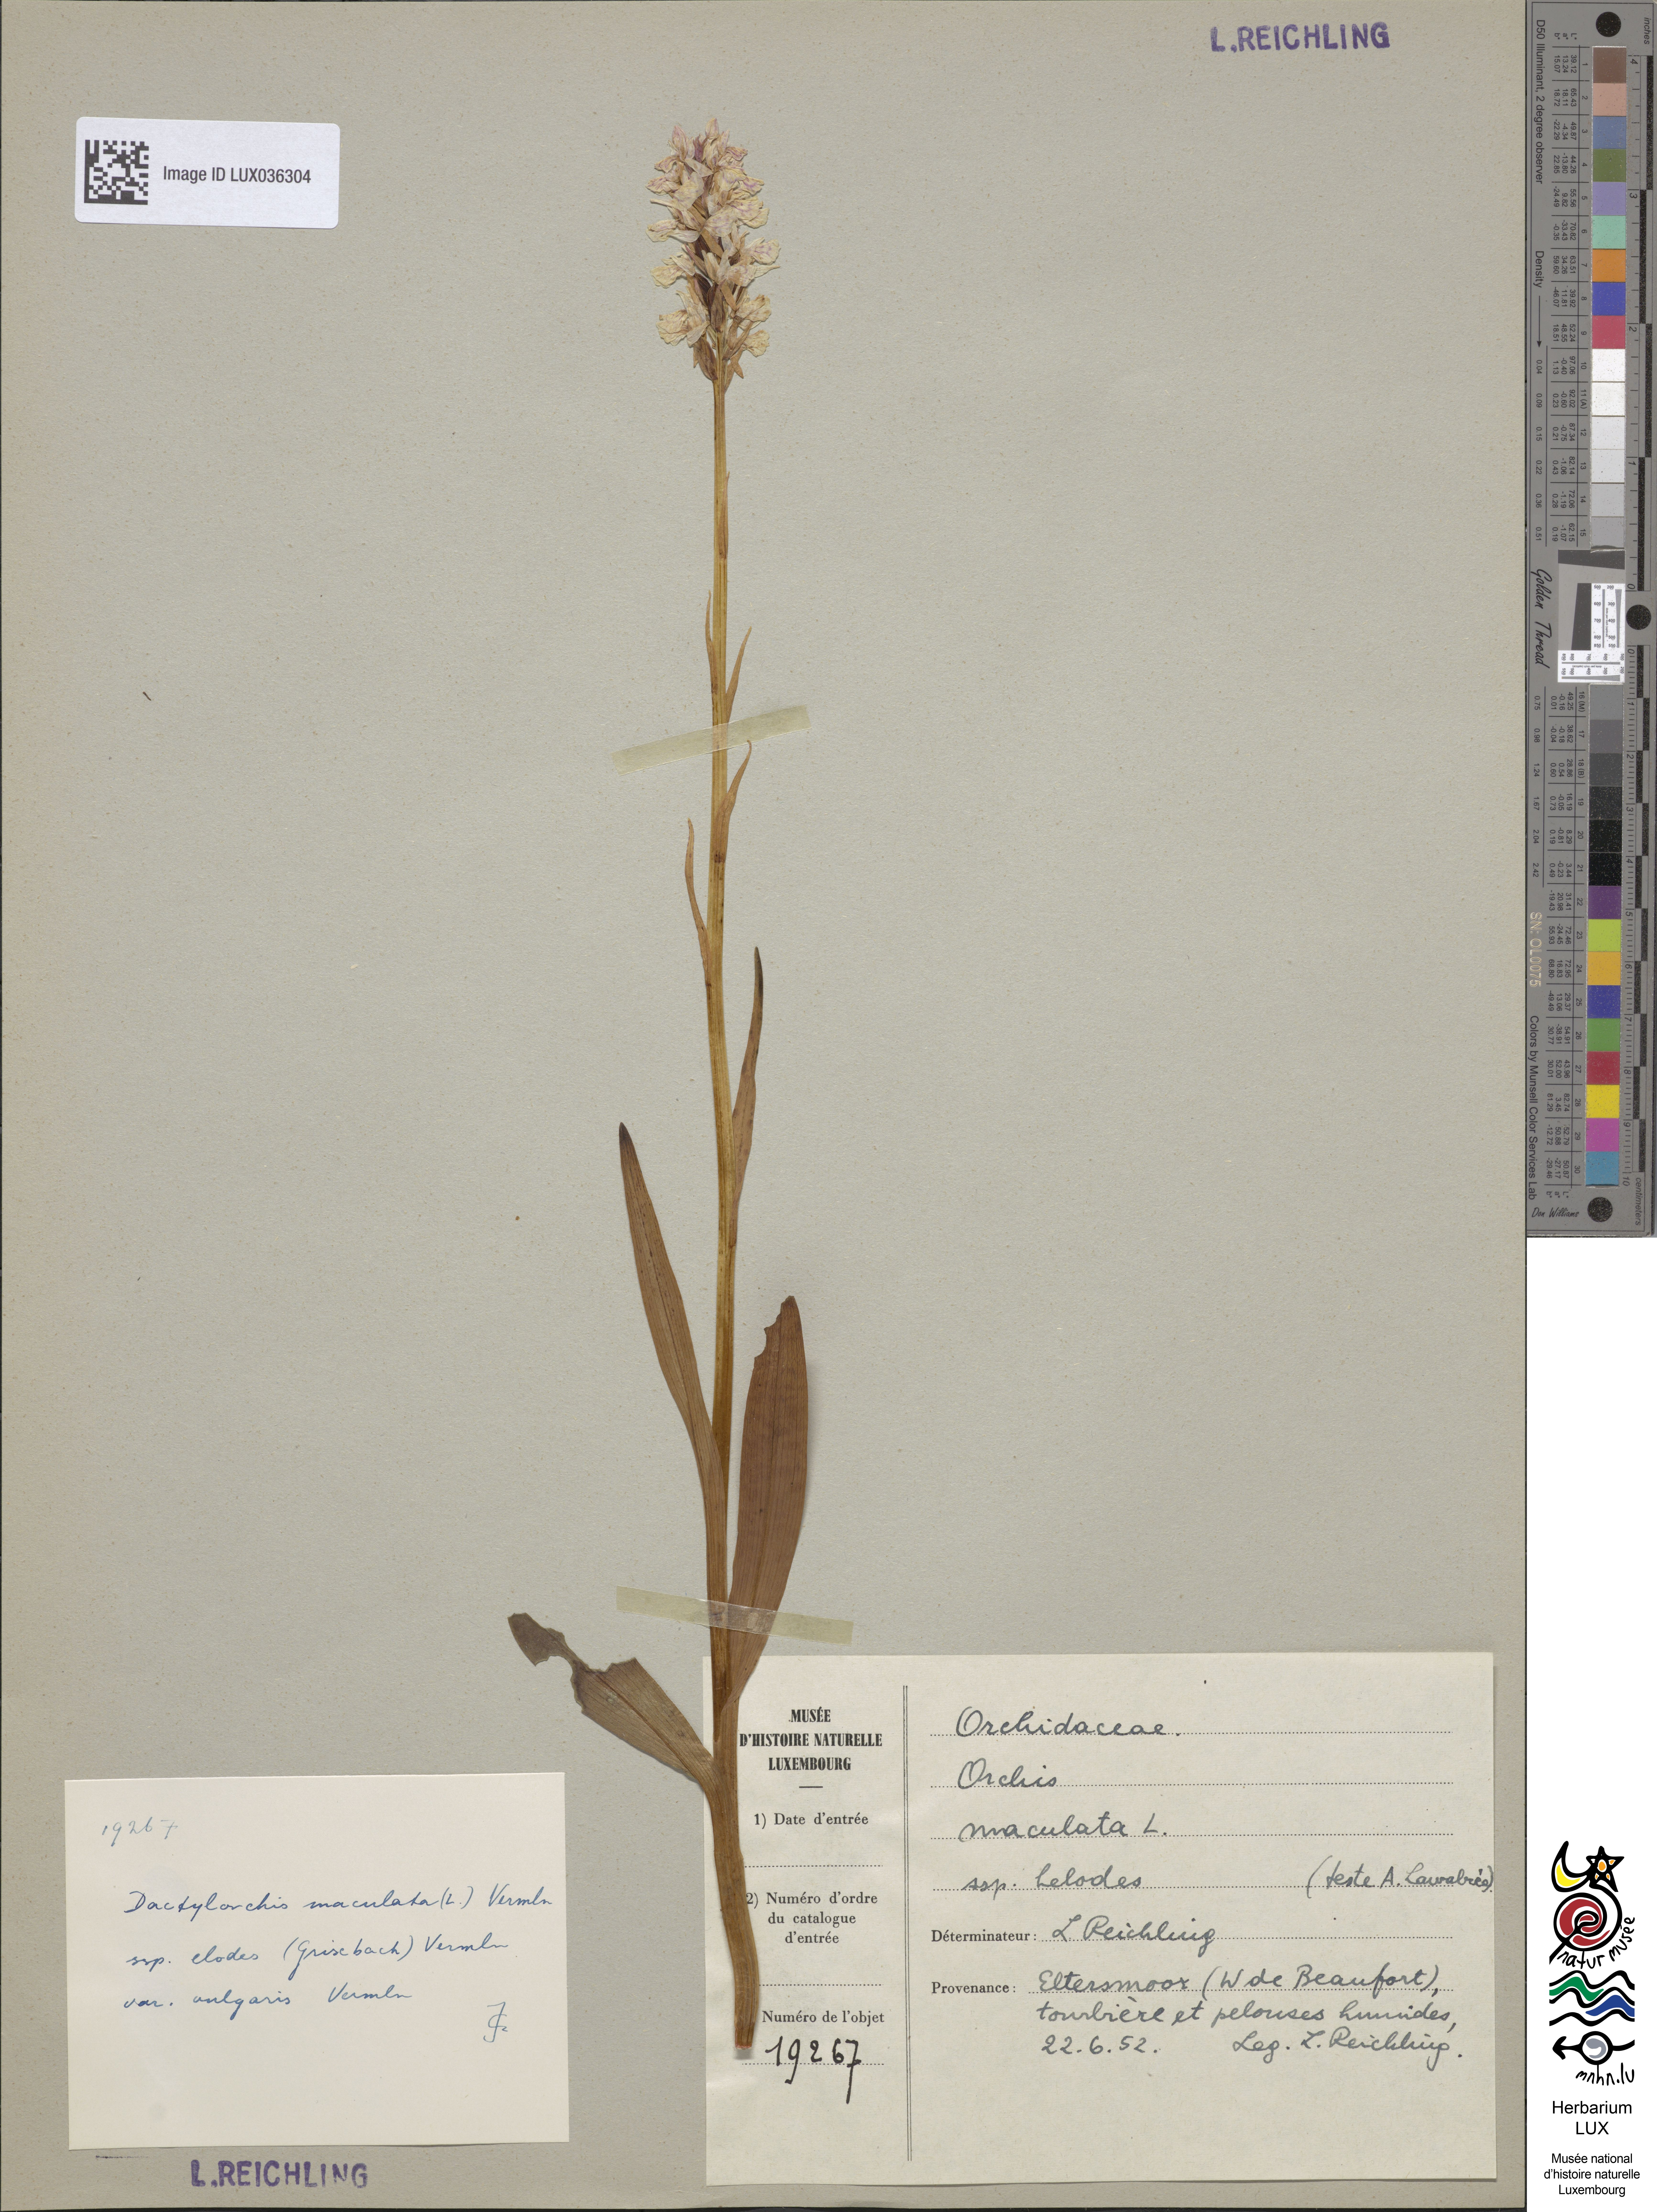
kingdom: Plantae
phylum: Tracheophyta
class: Liliopsida
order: Asparagales
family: Orchidaceae
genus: Dactylorhiza
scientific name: Dactylorhiza maculata
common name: Heath spotted-orchid
